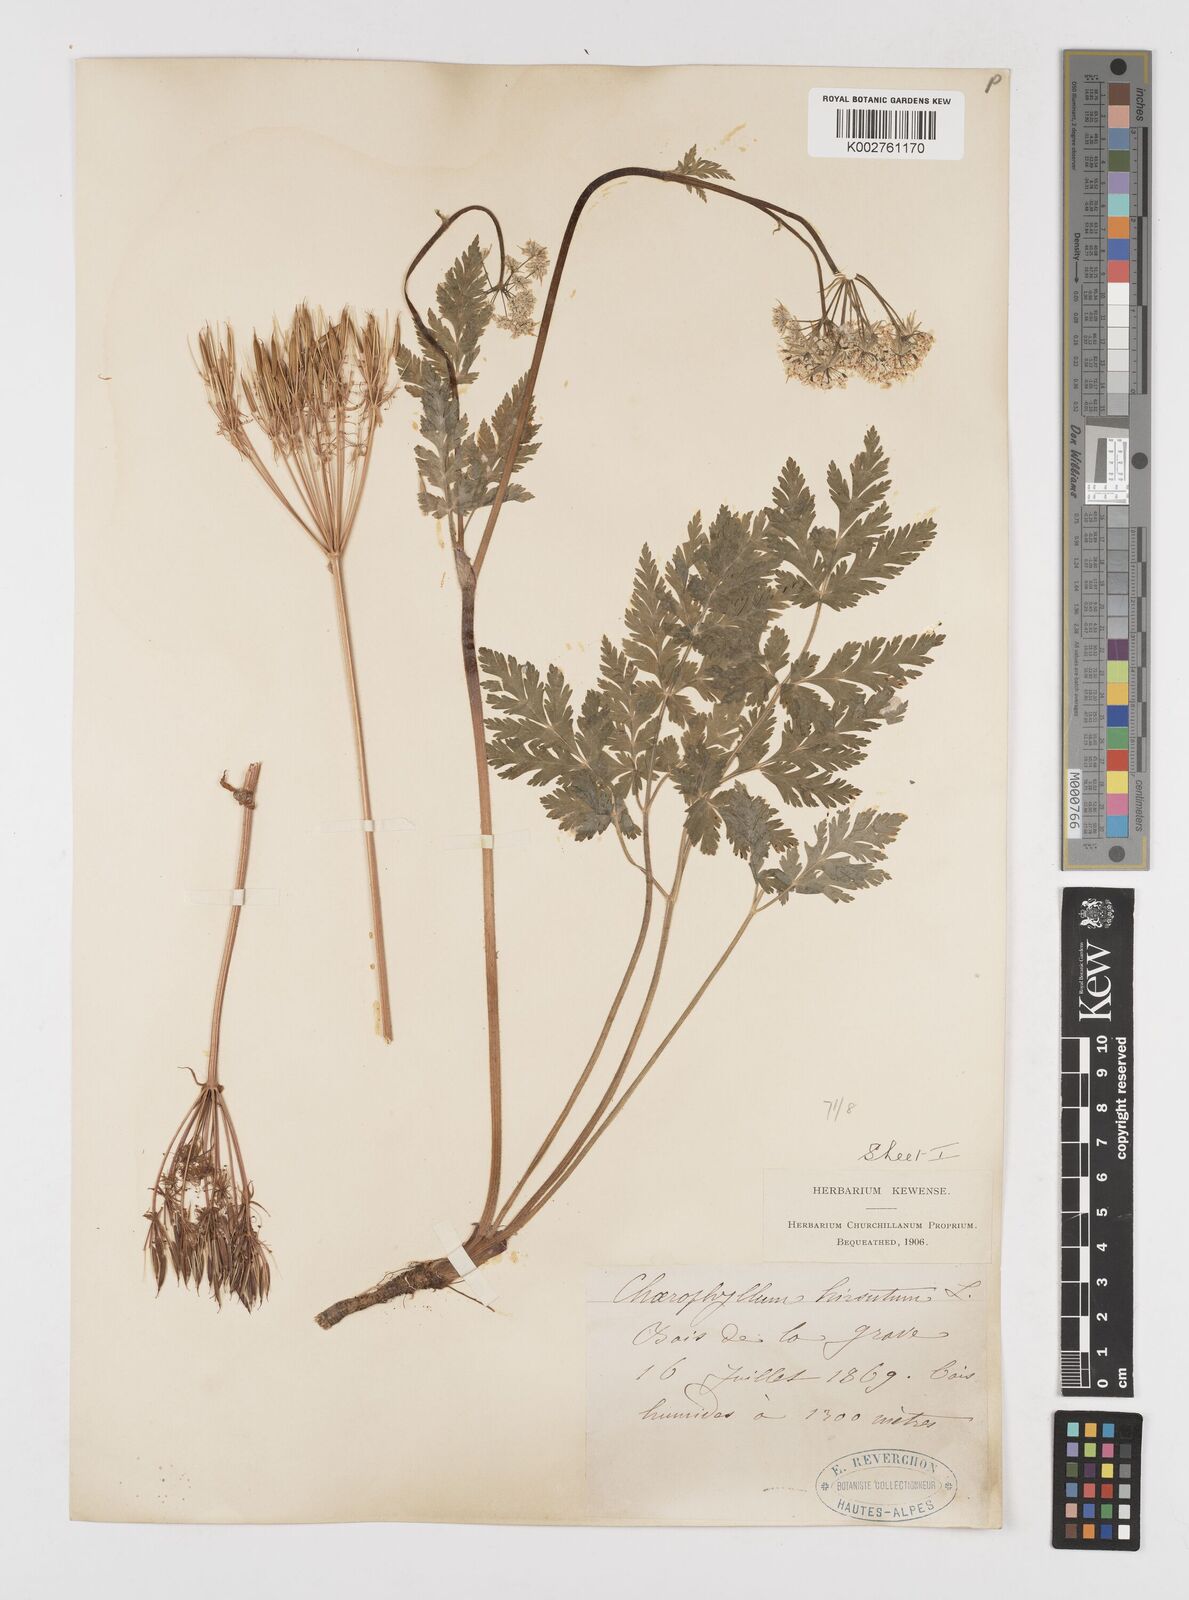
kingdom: Plantae
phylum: Tracheophyta
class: Magnoliopsida
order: Apiales
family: Apiaceae
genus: Chaerophyllum
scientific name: Chaerophyllum hirsutum
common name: Hairy chervil
